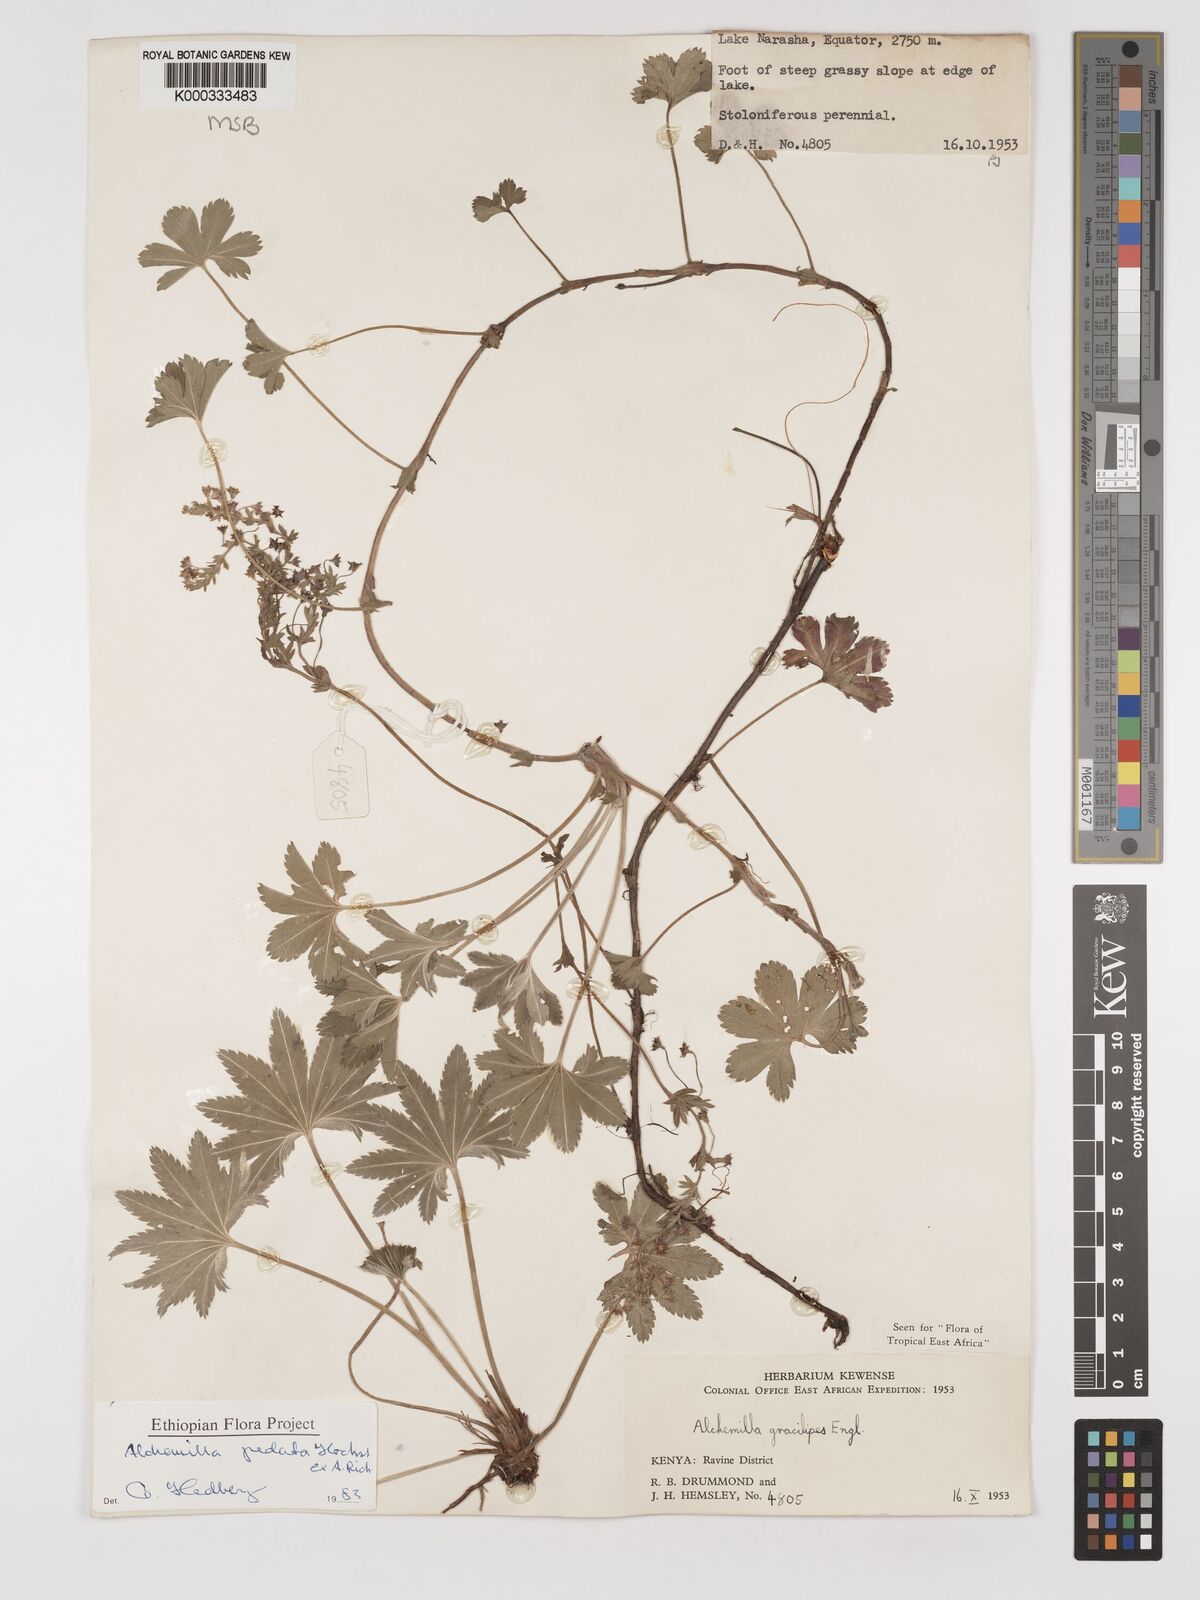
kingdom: Plantae
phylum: Tracheophyta
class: Magnoliopsida
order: Rosales
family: Rosaceae
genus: Alchemilla
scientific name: Alchemilla pedata
